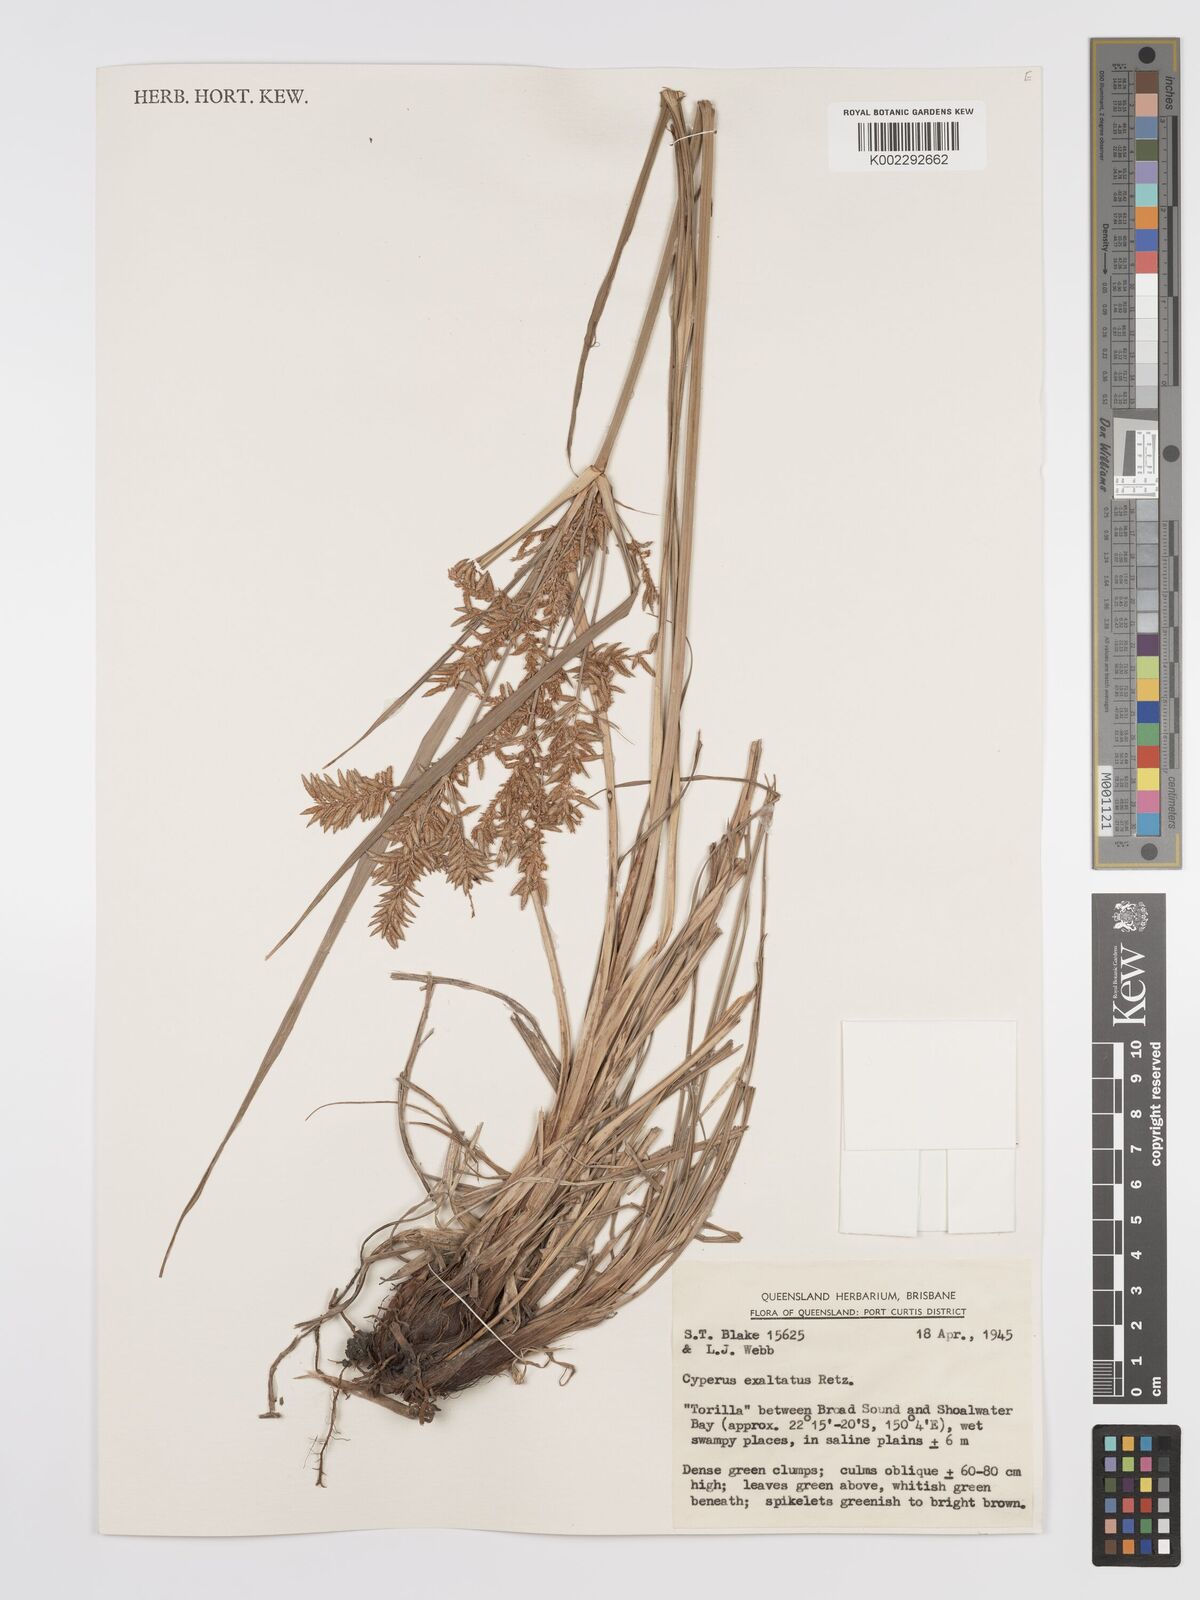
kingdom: Plantae
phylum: Tracheophyta
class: Liliopsida
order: Poales
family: Cyperaceae
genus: Cyperus
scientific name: Cyperus exaltatus
